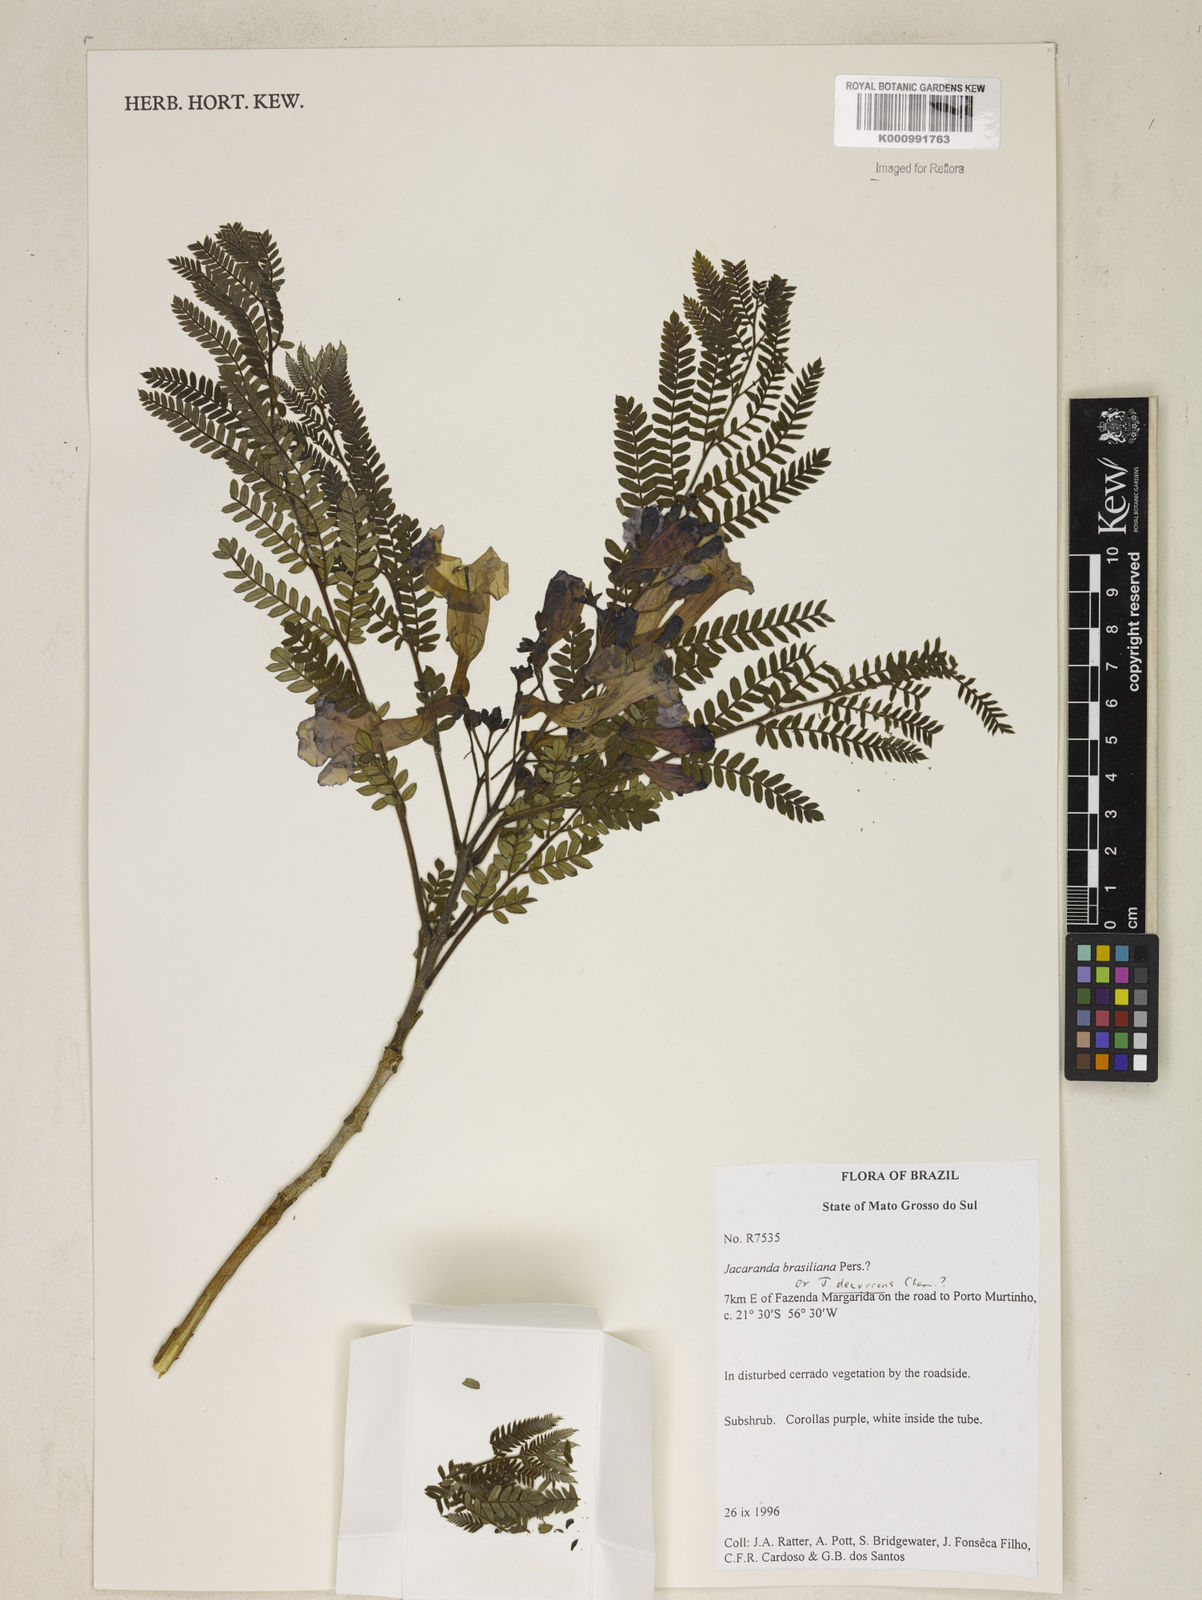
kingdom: Plantae
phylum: Tracheophyta
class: Magnoliopsida
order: Lamiales
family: Bignoniaceae
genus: Jacaranda
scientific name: Jacaranda brasiliana
